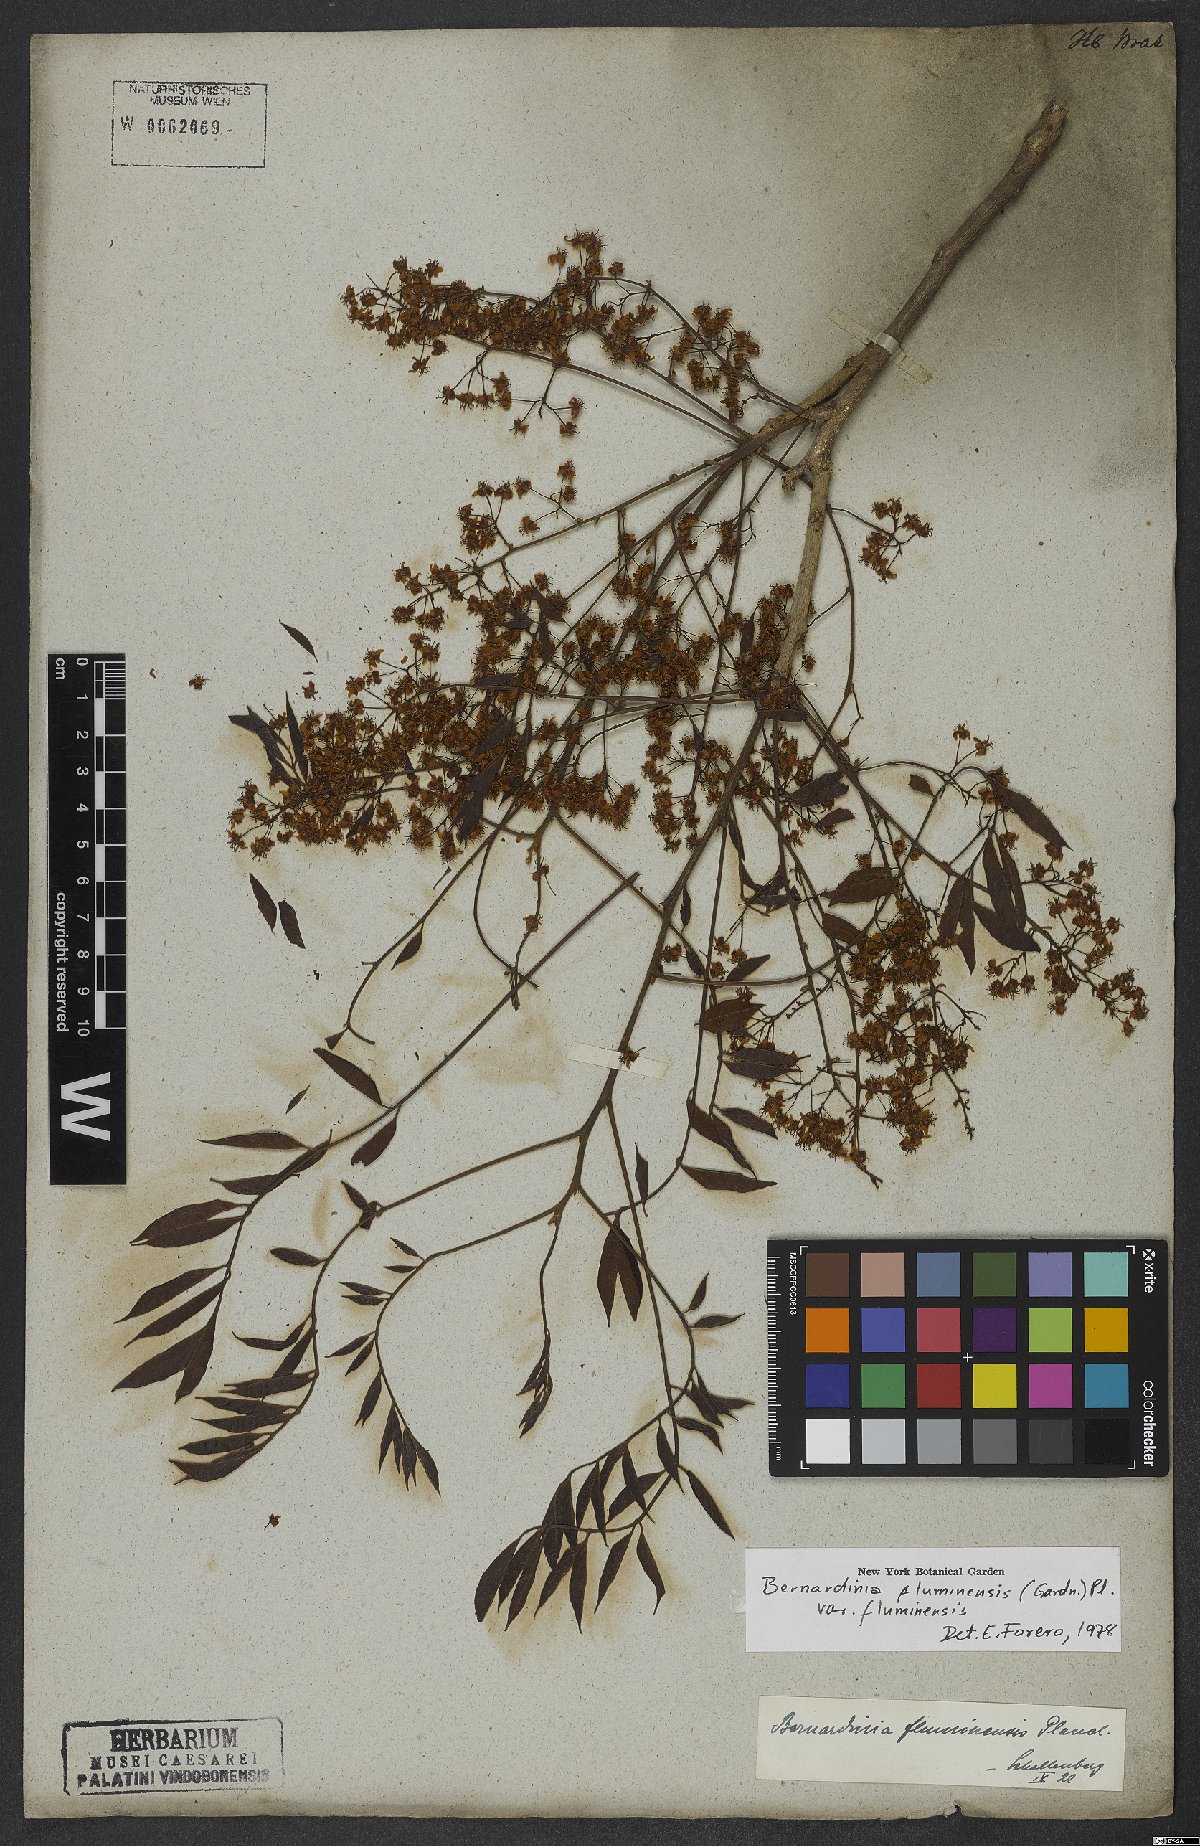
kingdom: Plantae
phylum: Tracheophyta
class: Magnoliopsida
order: Oxalidales
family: Connaraceae
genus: Rourea
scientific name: Rourea fluminensis
